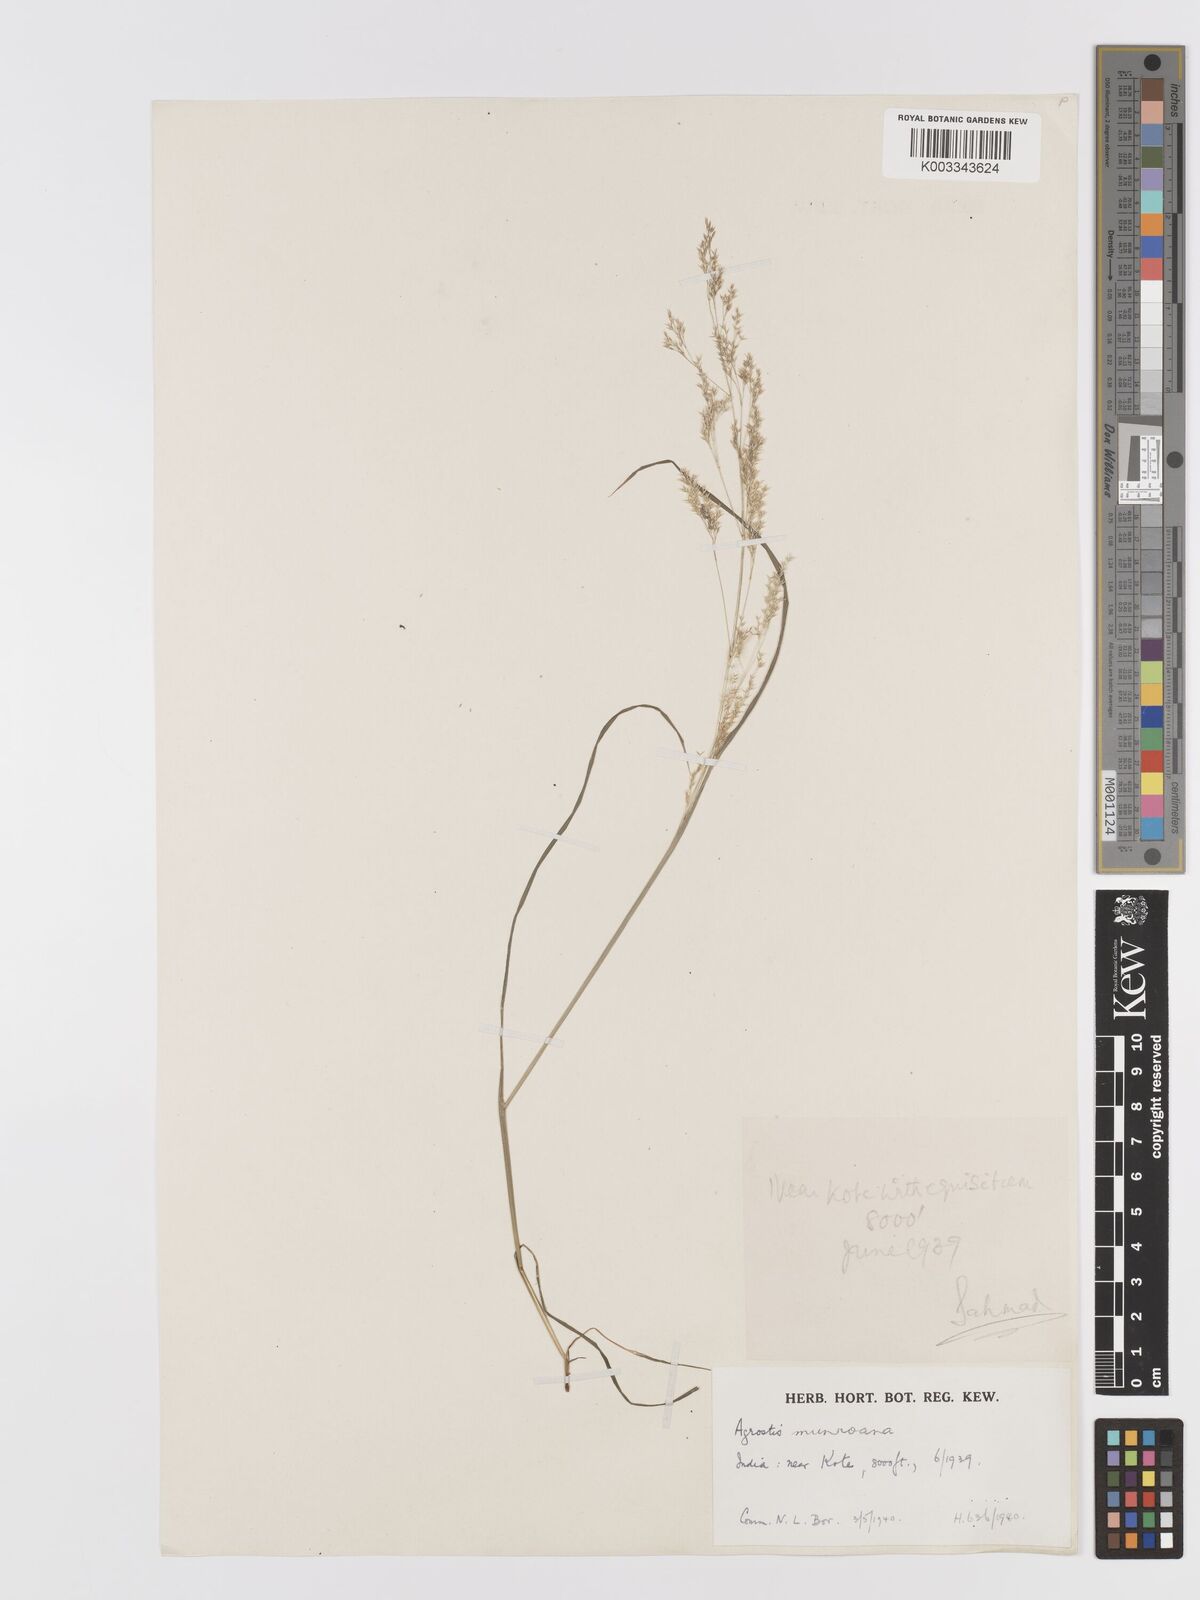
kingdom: Plantae
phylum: Tracheophyta
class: Liliopsida
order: Poales
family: Poaceae
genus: Agrostis
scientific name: Agrostis munroana
